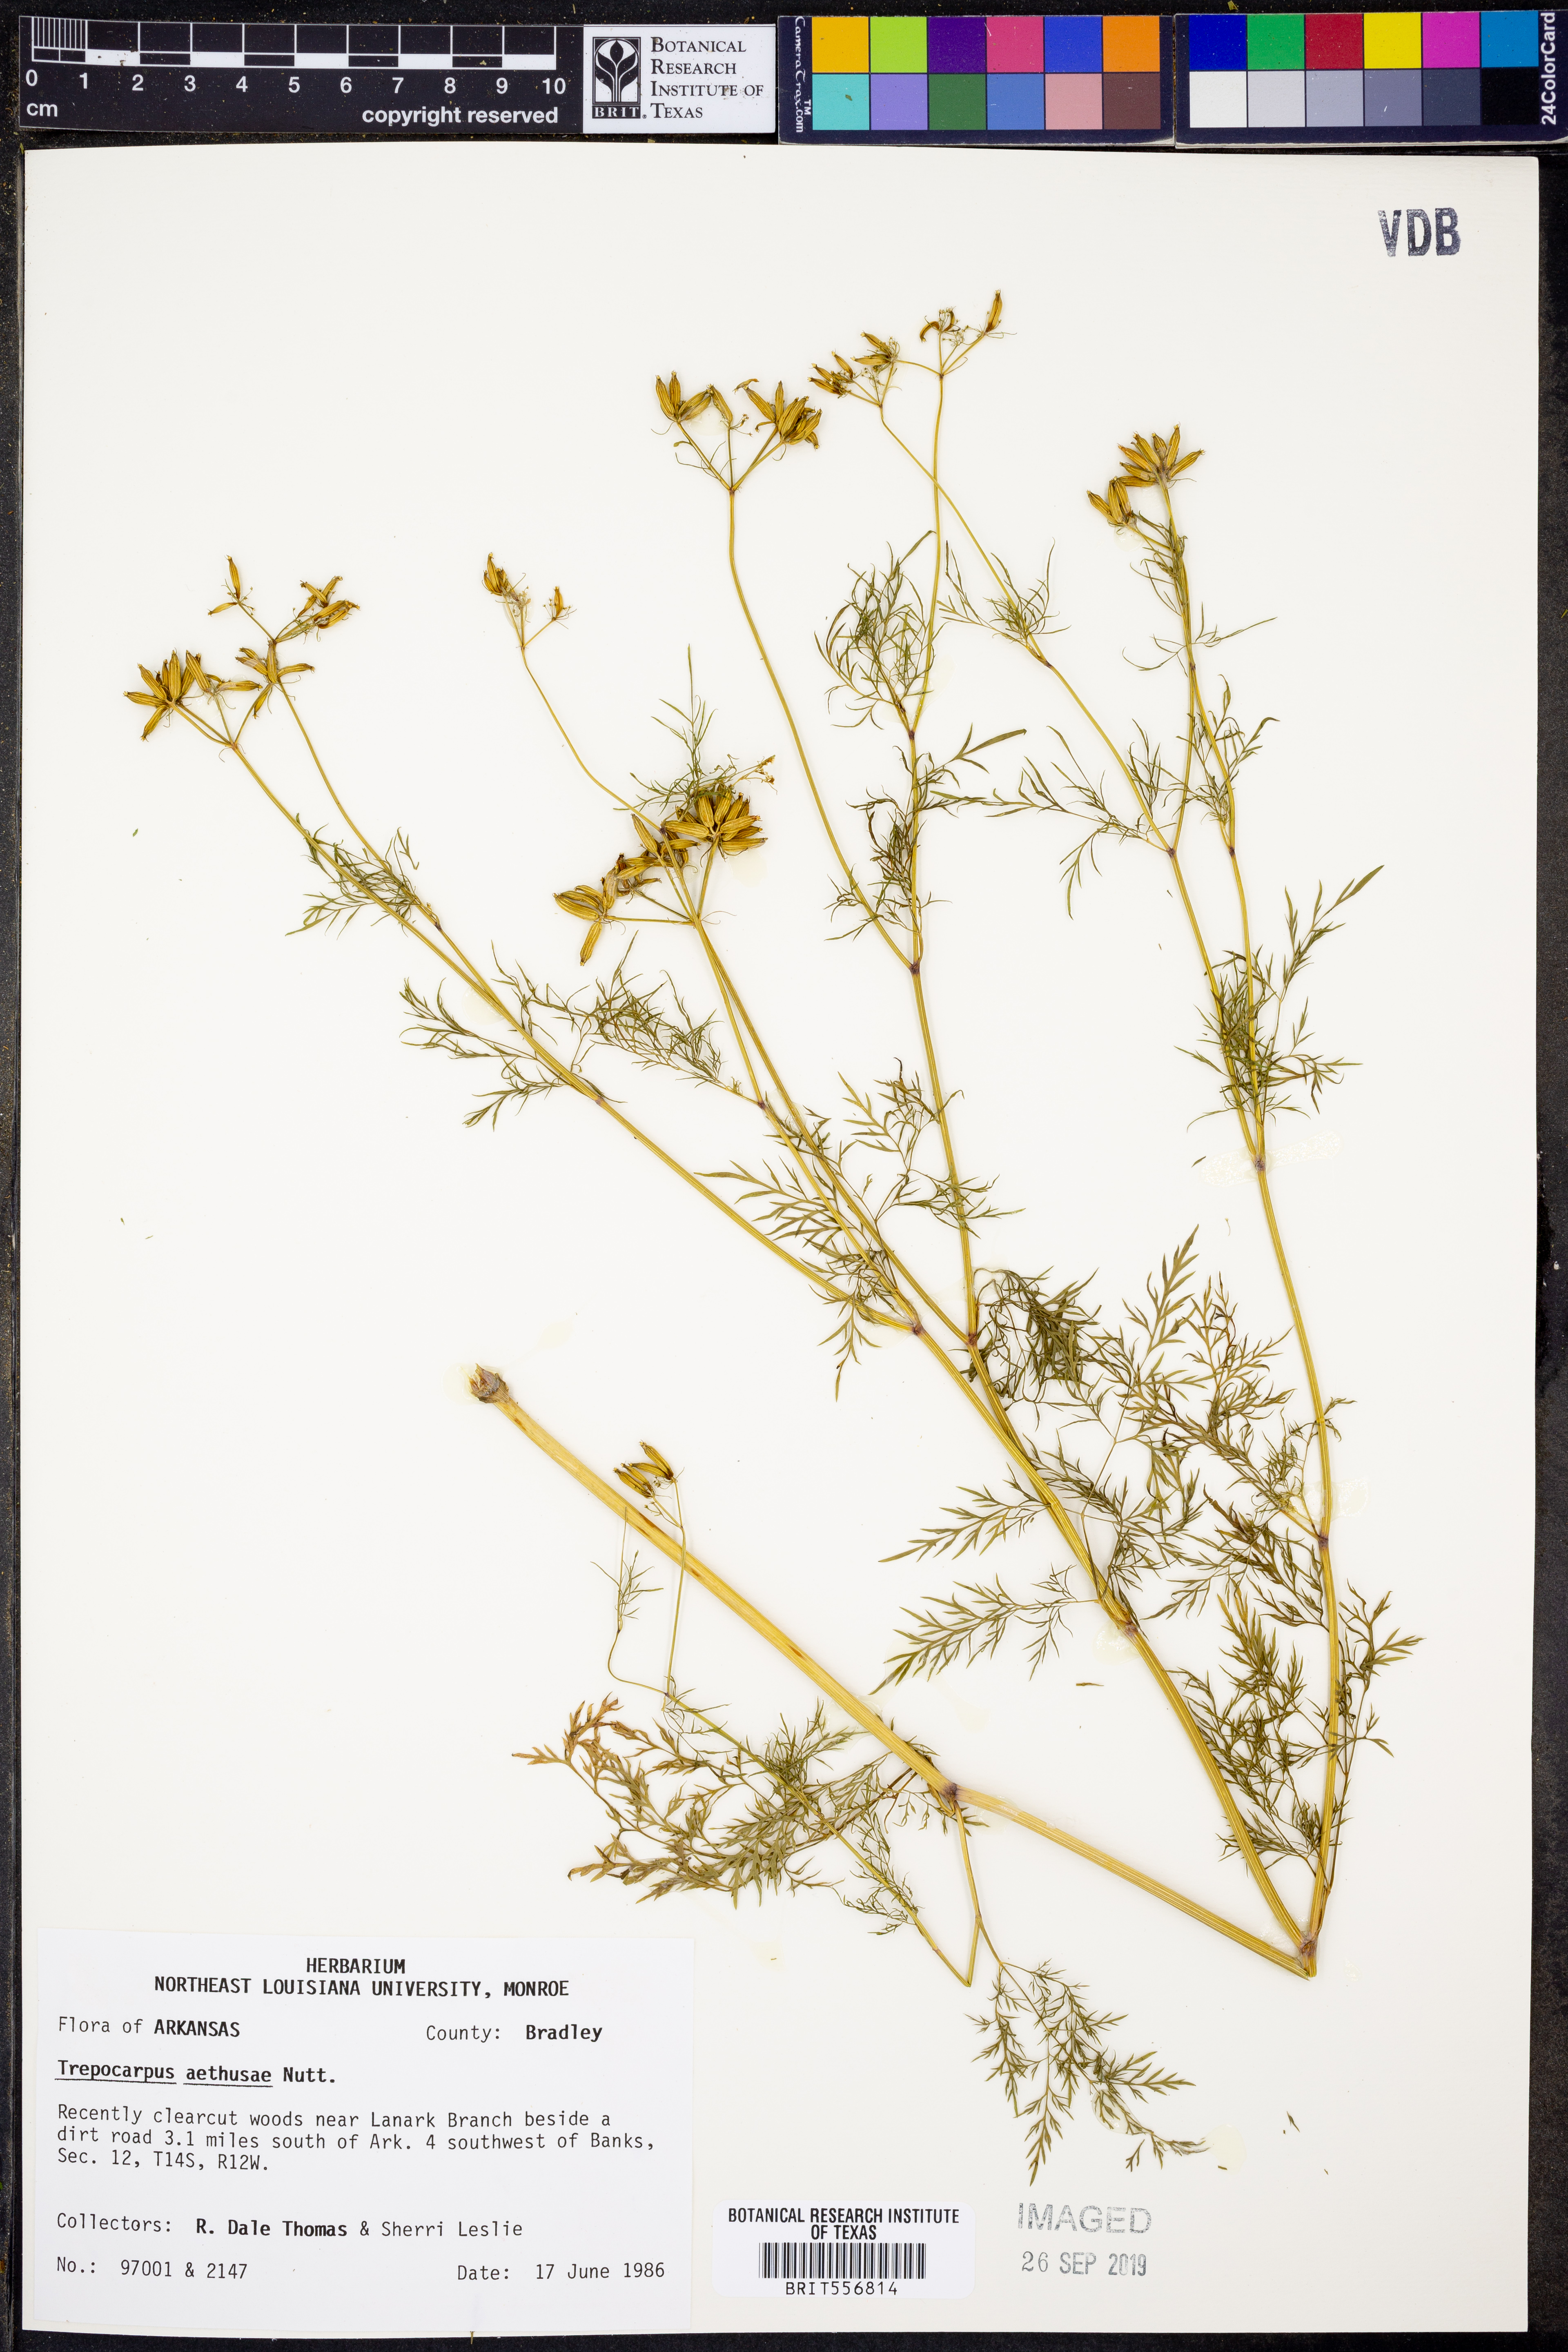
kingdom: Plantae
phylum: Tracheophyta
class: Magnoliopsida
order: Apiales
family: Apiaceae
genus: Trepocarpus
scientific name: Trepocarpus aethusae
